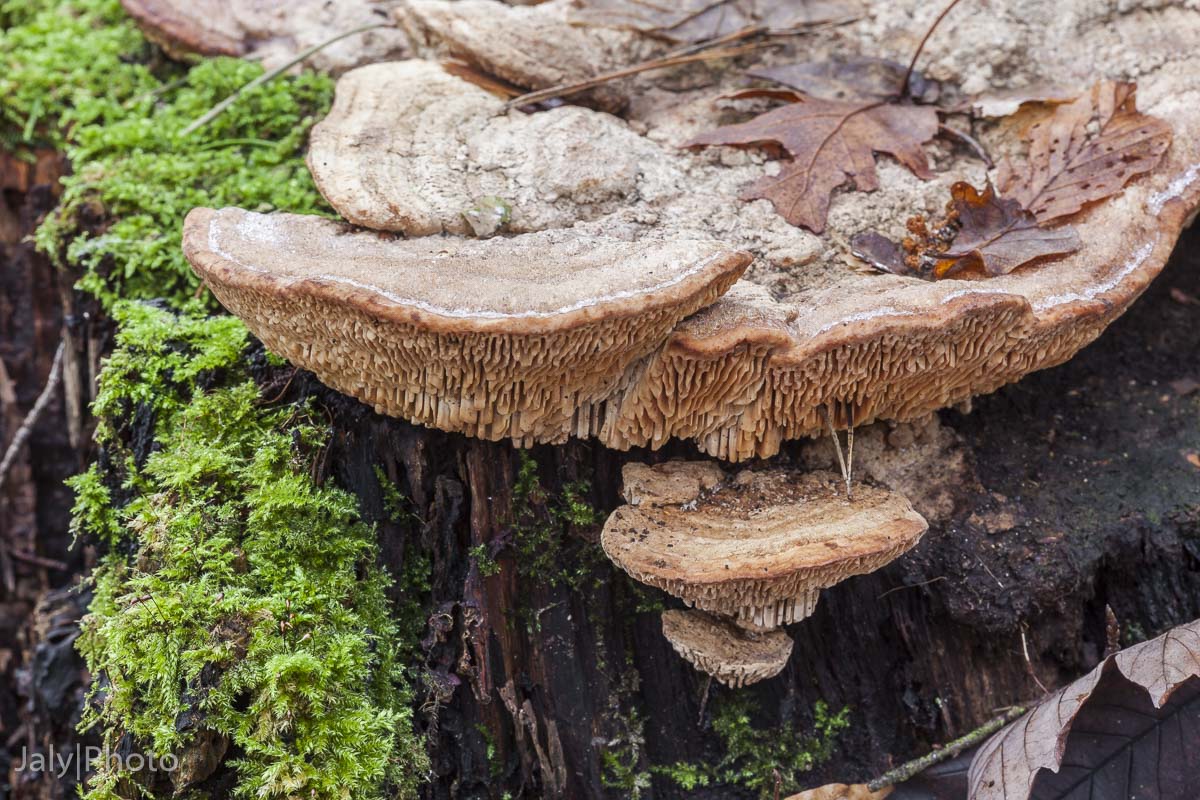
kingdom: Fungi
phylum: Basidiomycota
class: Agaricomycetes
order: Polyporales
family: Fomitopsidaceae
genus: Daedalea
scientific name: Daedalea quercina
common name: ege-labyrintsvamp
